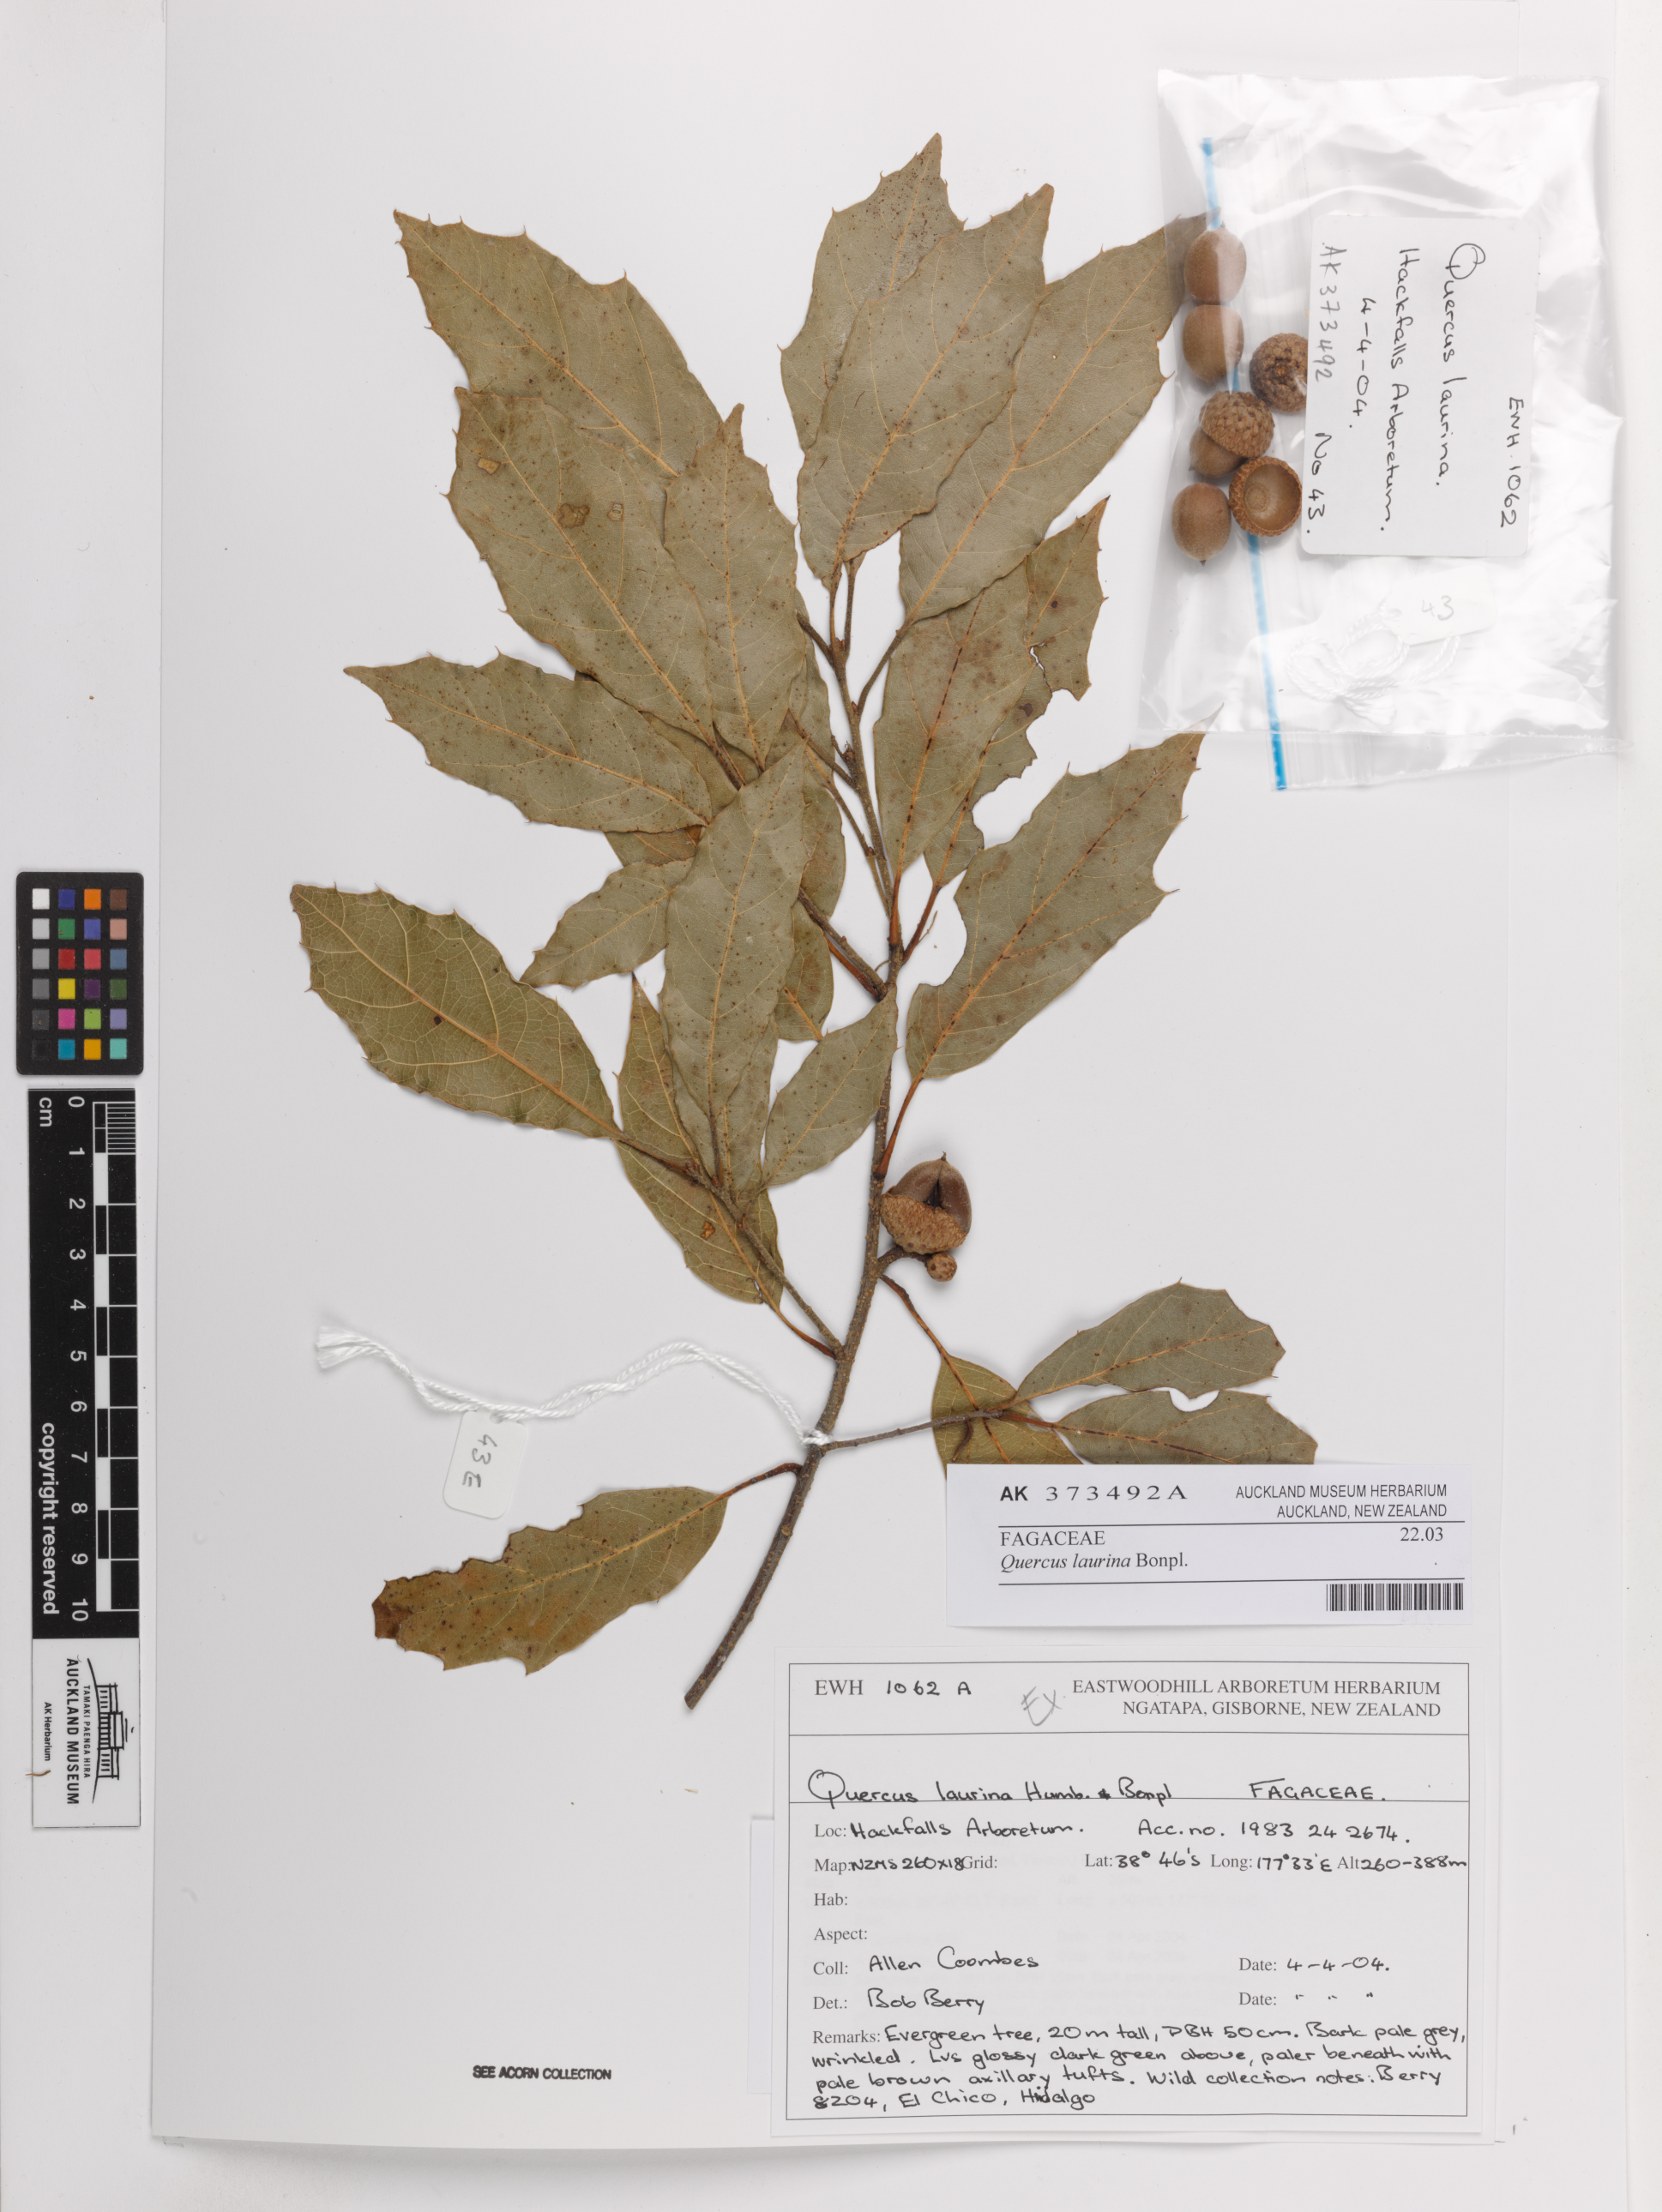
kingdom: Plantae
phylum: Tracheophyta
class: Magnoliopsida
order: Fagales
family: Fagaceae
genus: Quercus
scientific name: Quercus laurina
